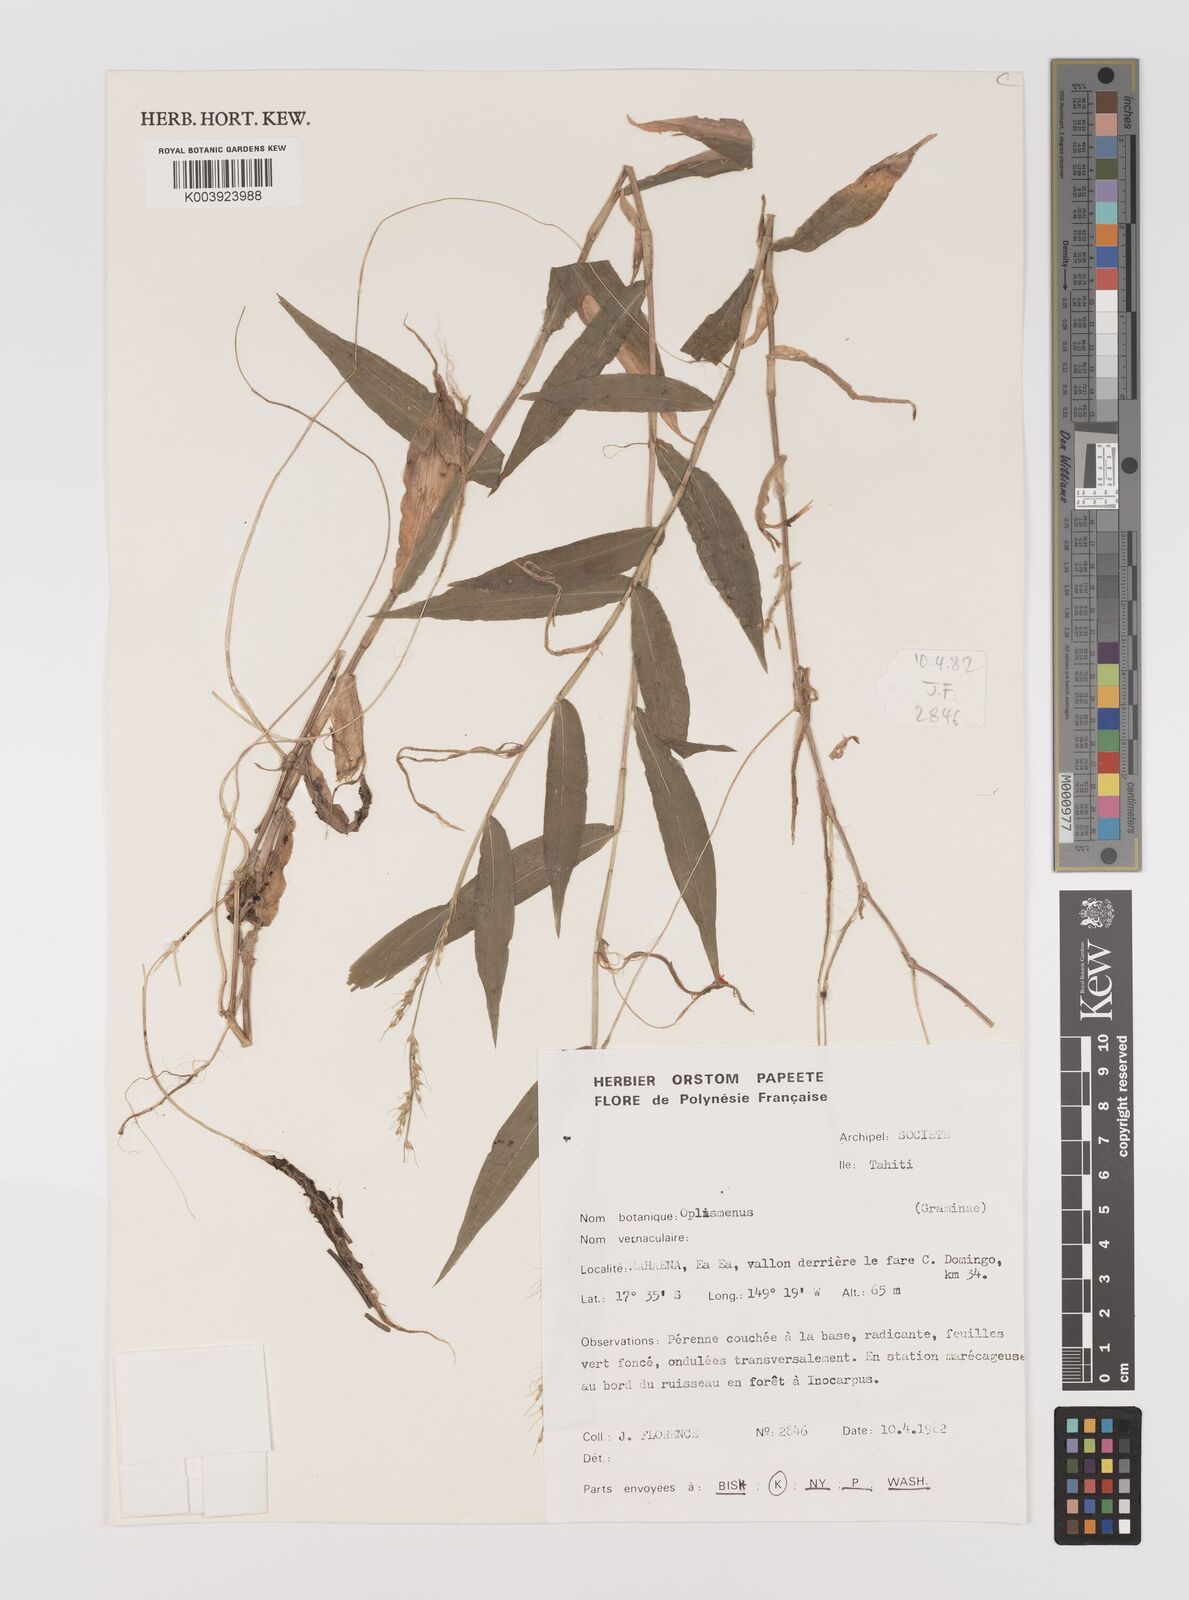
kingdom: Plantae
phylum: Tracheophyta
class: Liliopsida
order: Poales
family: Poaceae
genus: Oplismenus
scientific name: Oplismenus compositus
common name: Running mountain grass
